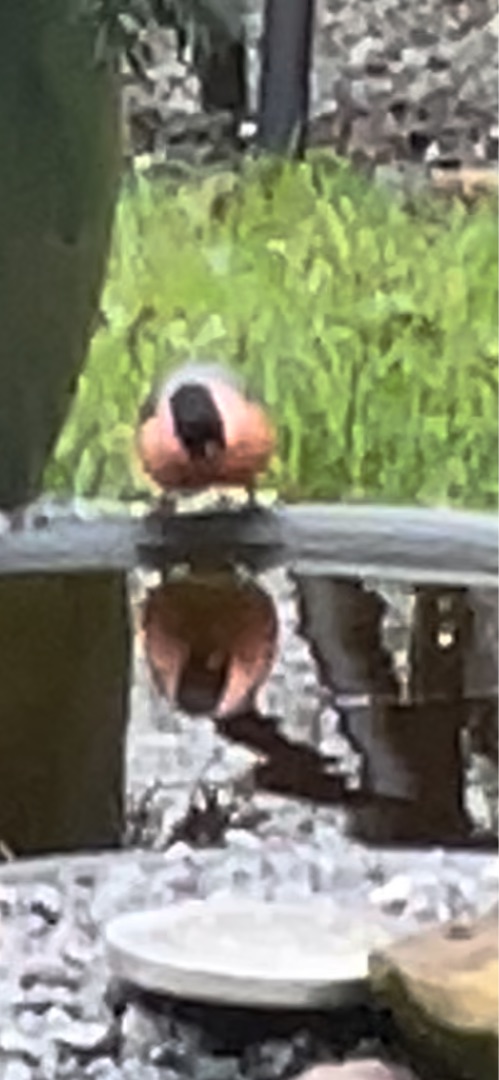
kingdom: Animalia
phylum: Chordata
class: Aves
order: Passeriformes
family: Fringillidae
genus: Pyrrhula
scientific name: Pyrrhula pyrrhula
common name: Dompap
